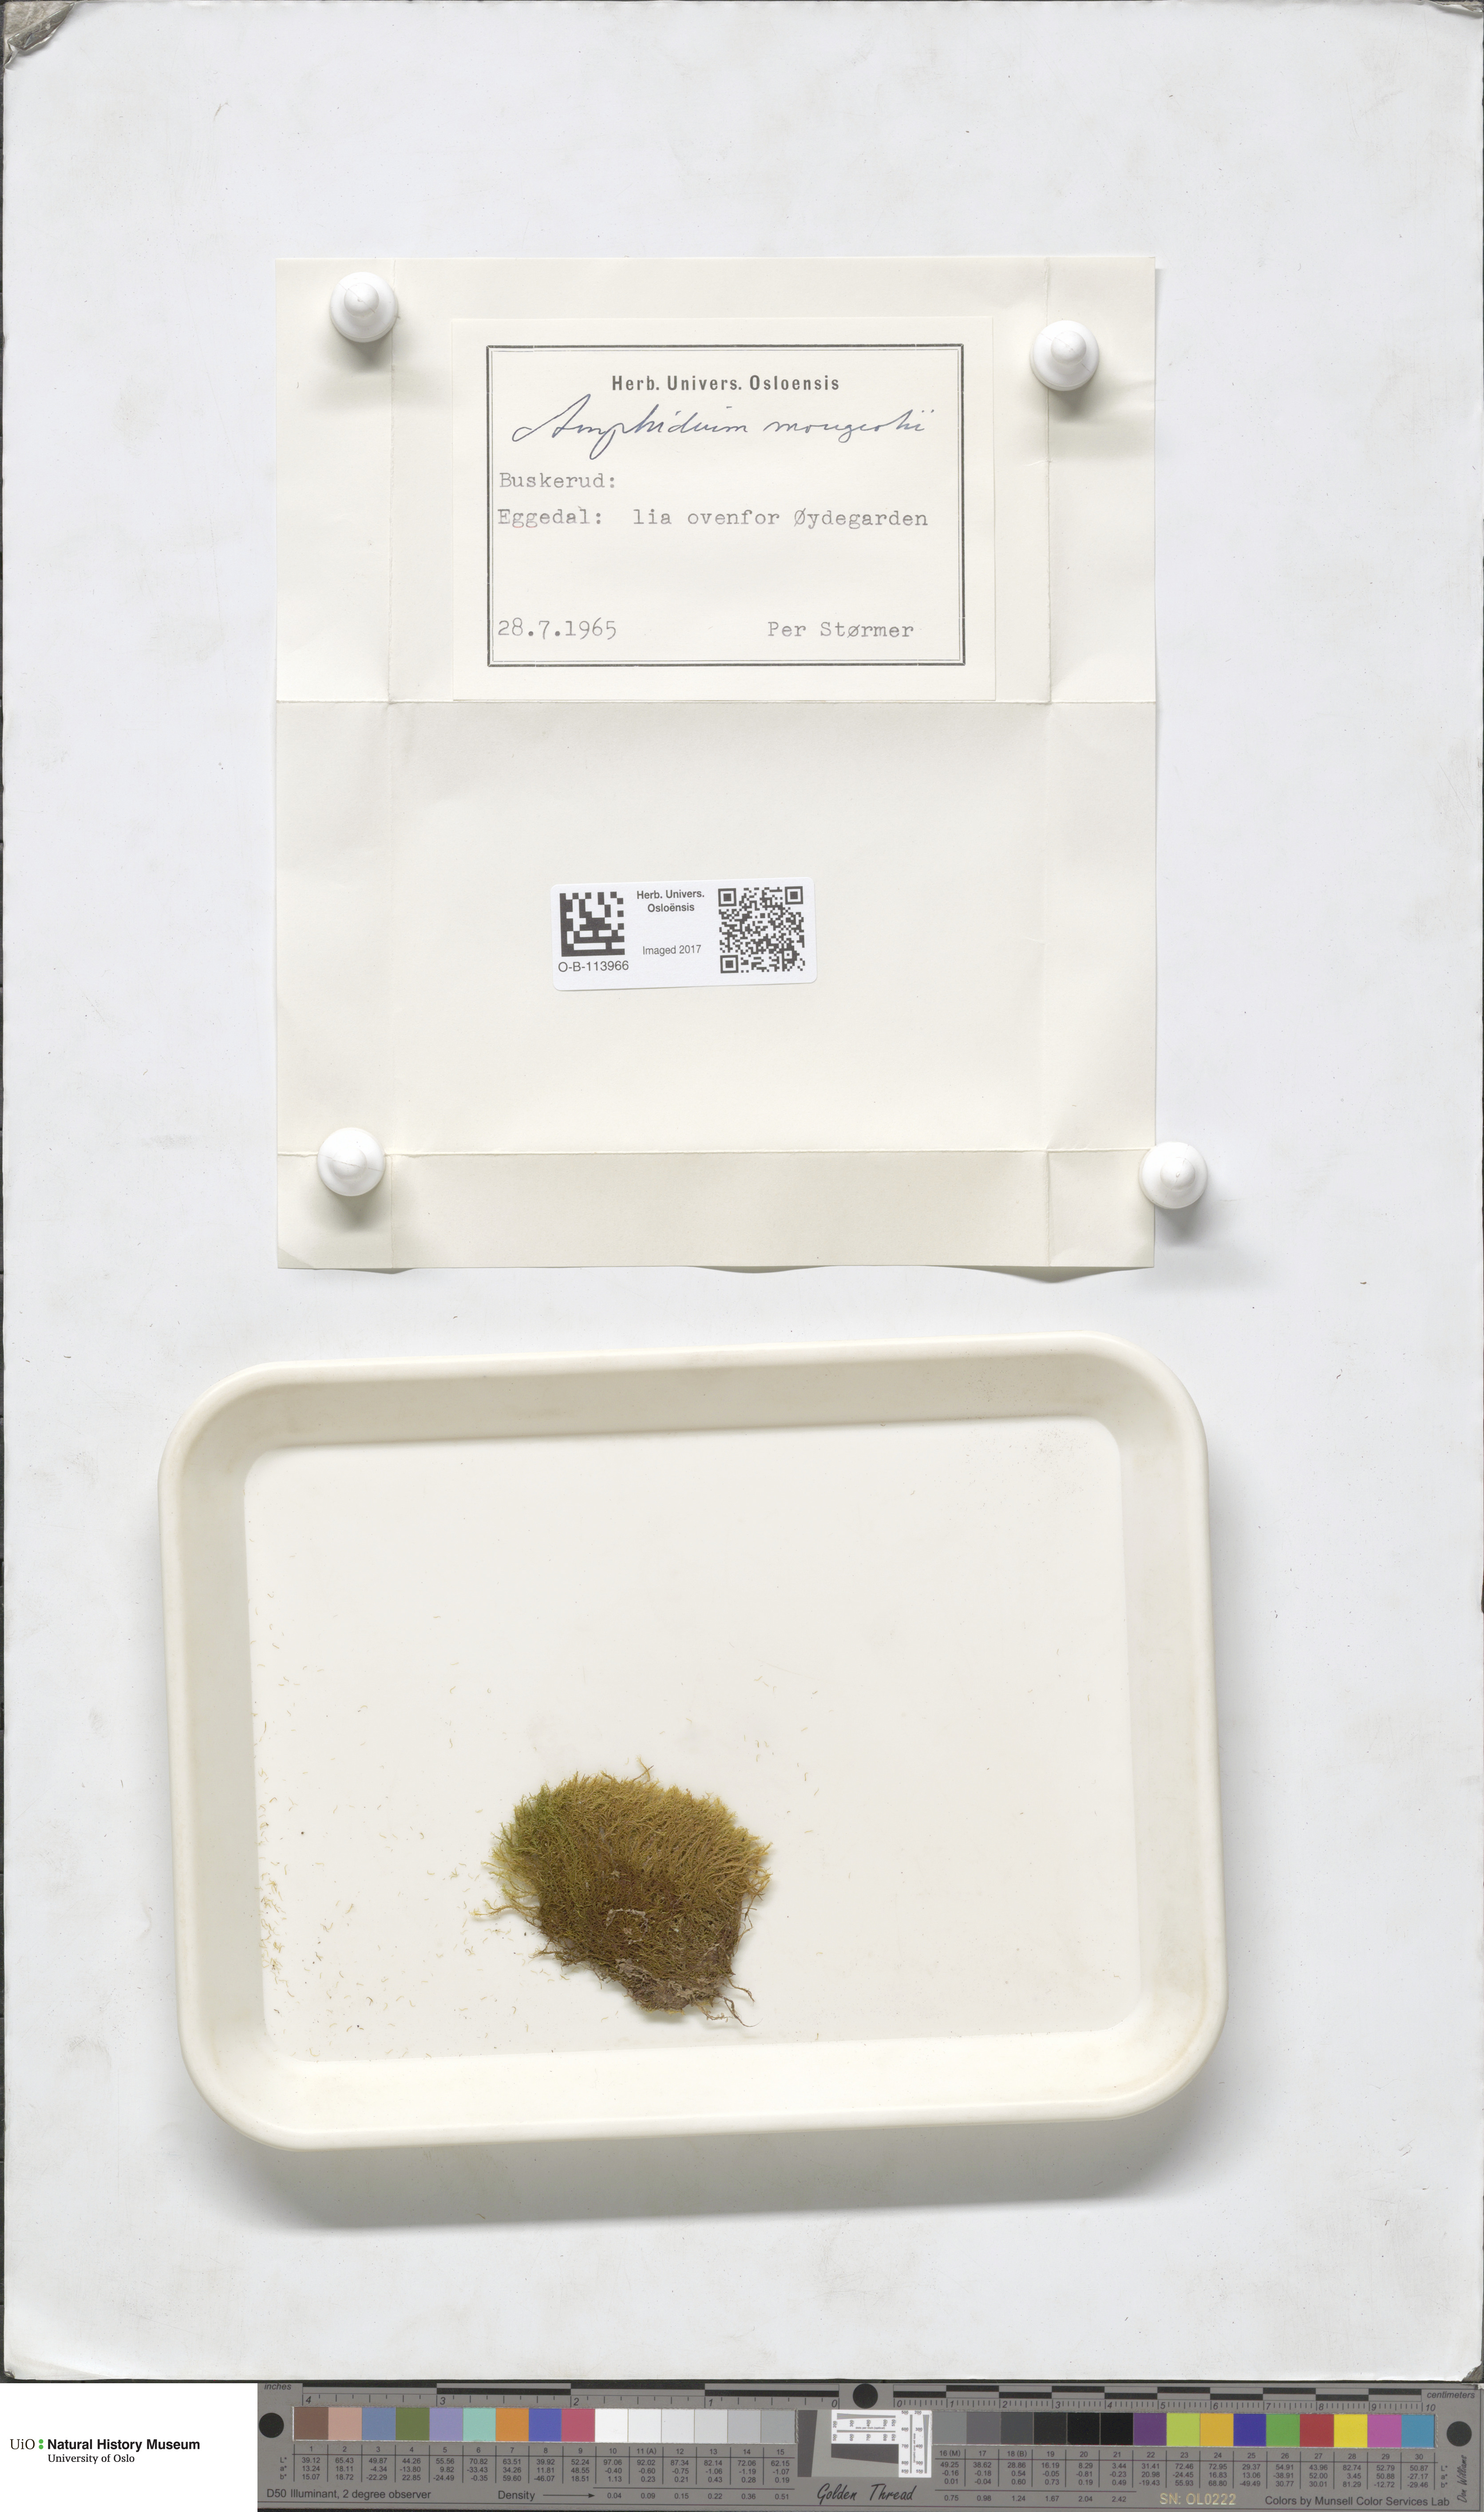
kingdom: Plantae
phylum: Bryophyta
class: Bryopsida
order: Dicranales
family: Amphidiaceae
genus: Amphidium
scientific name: Amphidium mougeotii
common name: Mougeot's yoke moss
